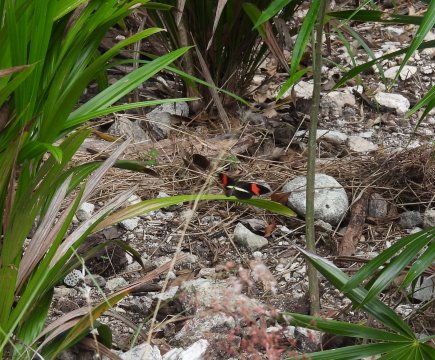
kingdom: Animalia
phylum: Arthropoda
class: Insecta
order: Lepidoptera
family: Nymphalidae
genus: Heliconius
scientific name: Heliconius erato
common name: Erato Heliconian
